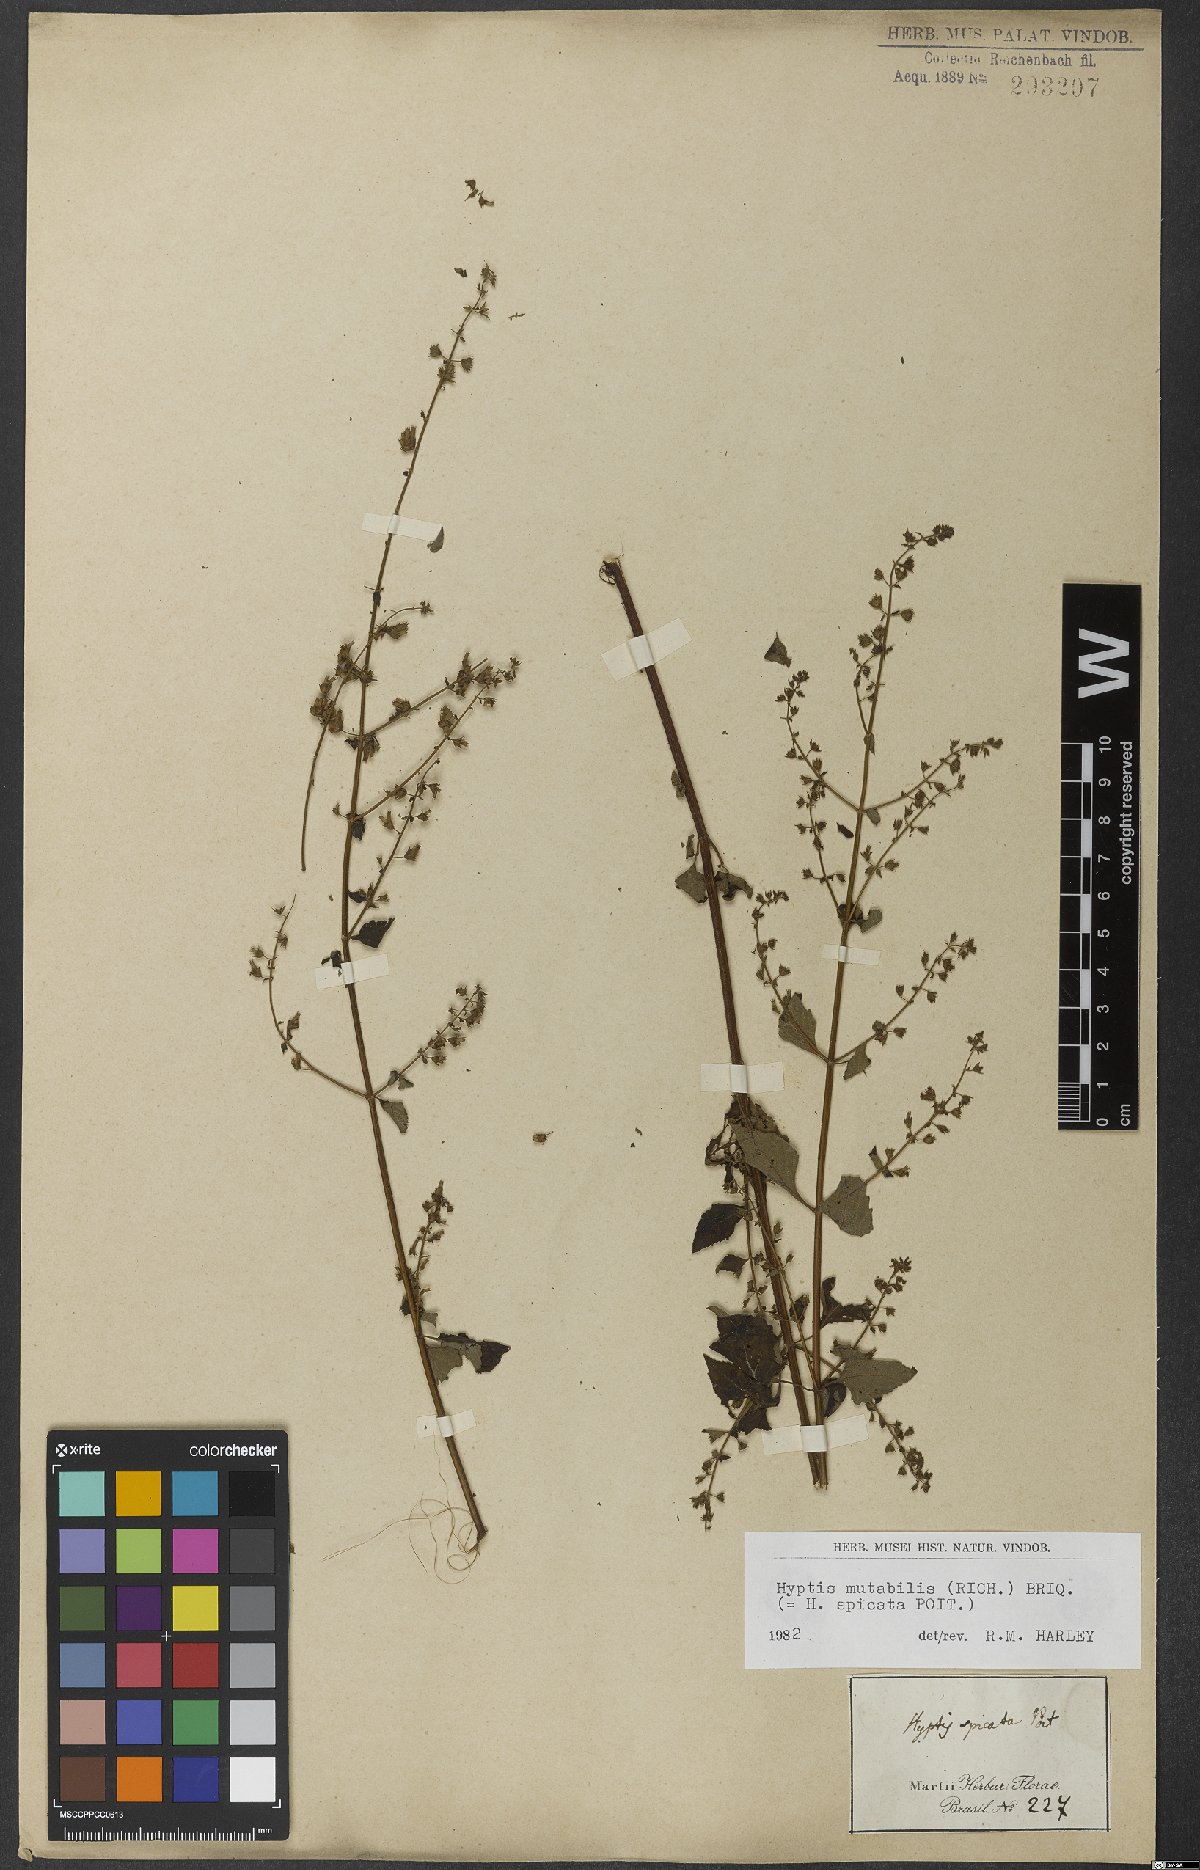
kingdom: Plantae
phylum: Tracheophyta
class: Magnoliopsida
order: Lamiales
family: Lamiaceae
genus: Cantinoa
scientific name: Cantinoa mutabilis
